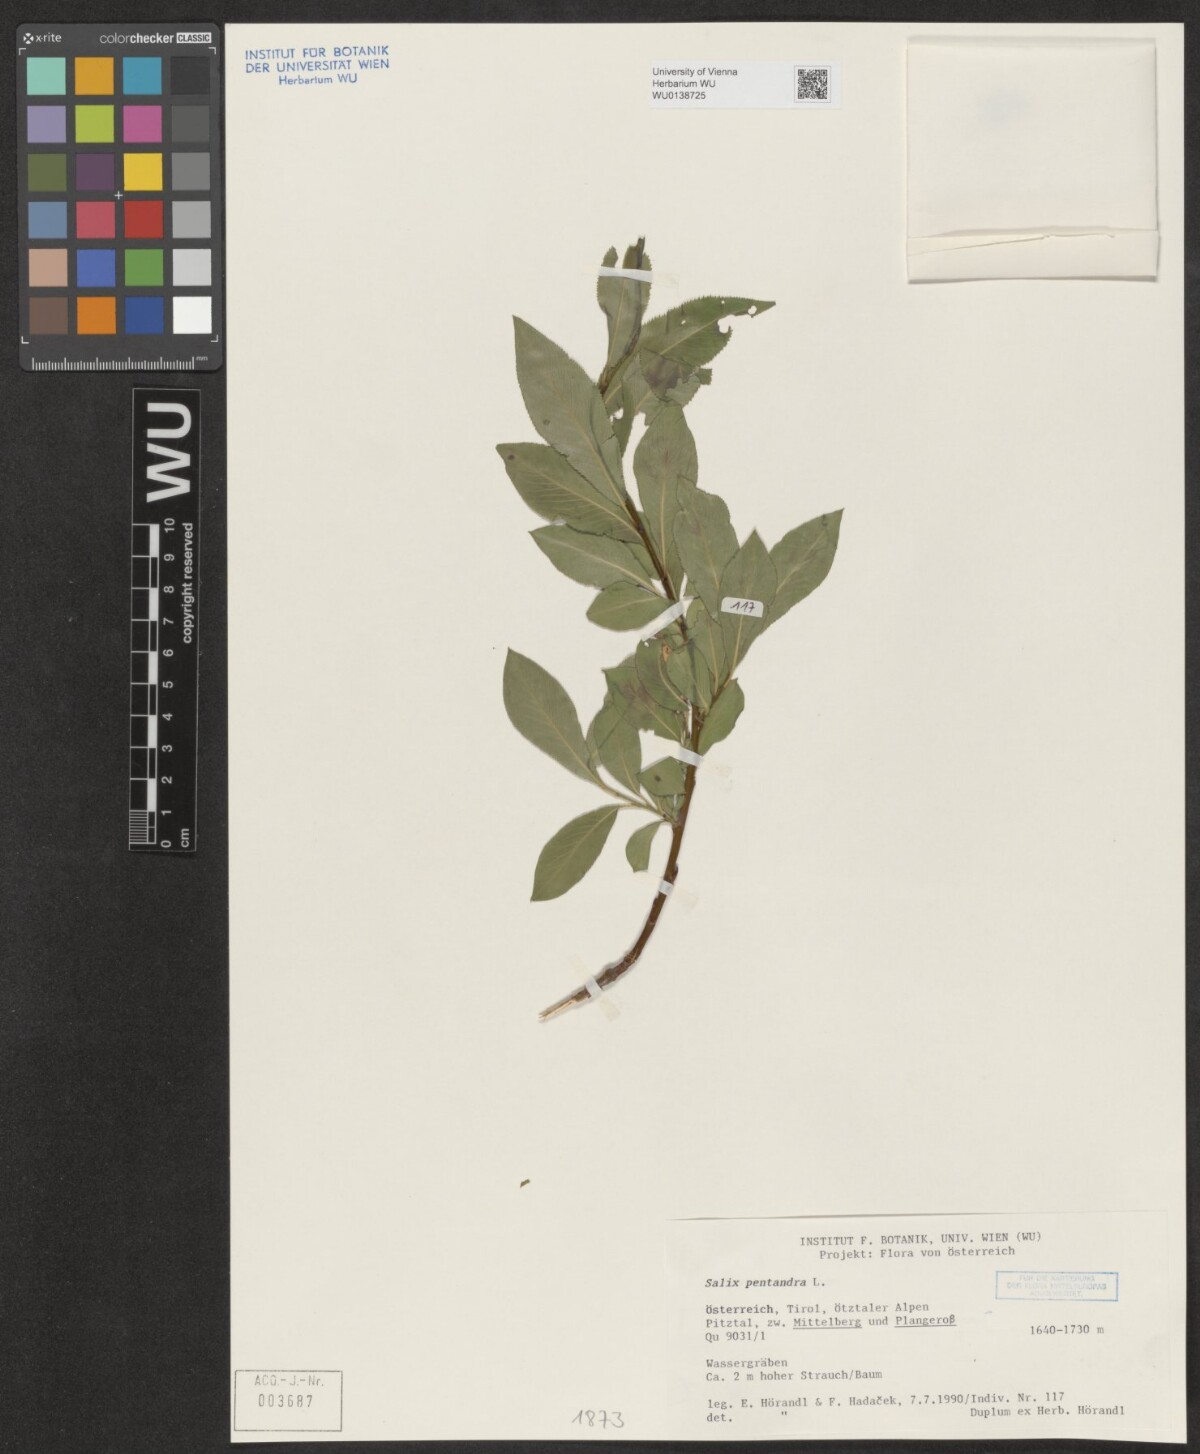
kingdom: Plantae
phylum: Tracheophyta
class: Magnoliopsida
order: Malpighiales
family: Salicaceae
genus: Salix
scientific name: Salix pentandra
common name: Bay willow
